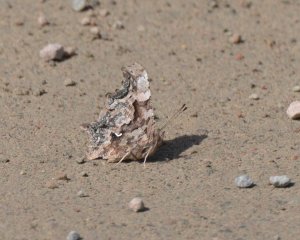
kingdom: Animalia
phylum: Arthropoda
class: Insecta
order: Lepidoptera
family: Nymphalidae
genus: Polygonia
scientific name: Polygonia faunus
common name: Green Comma
